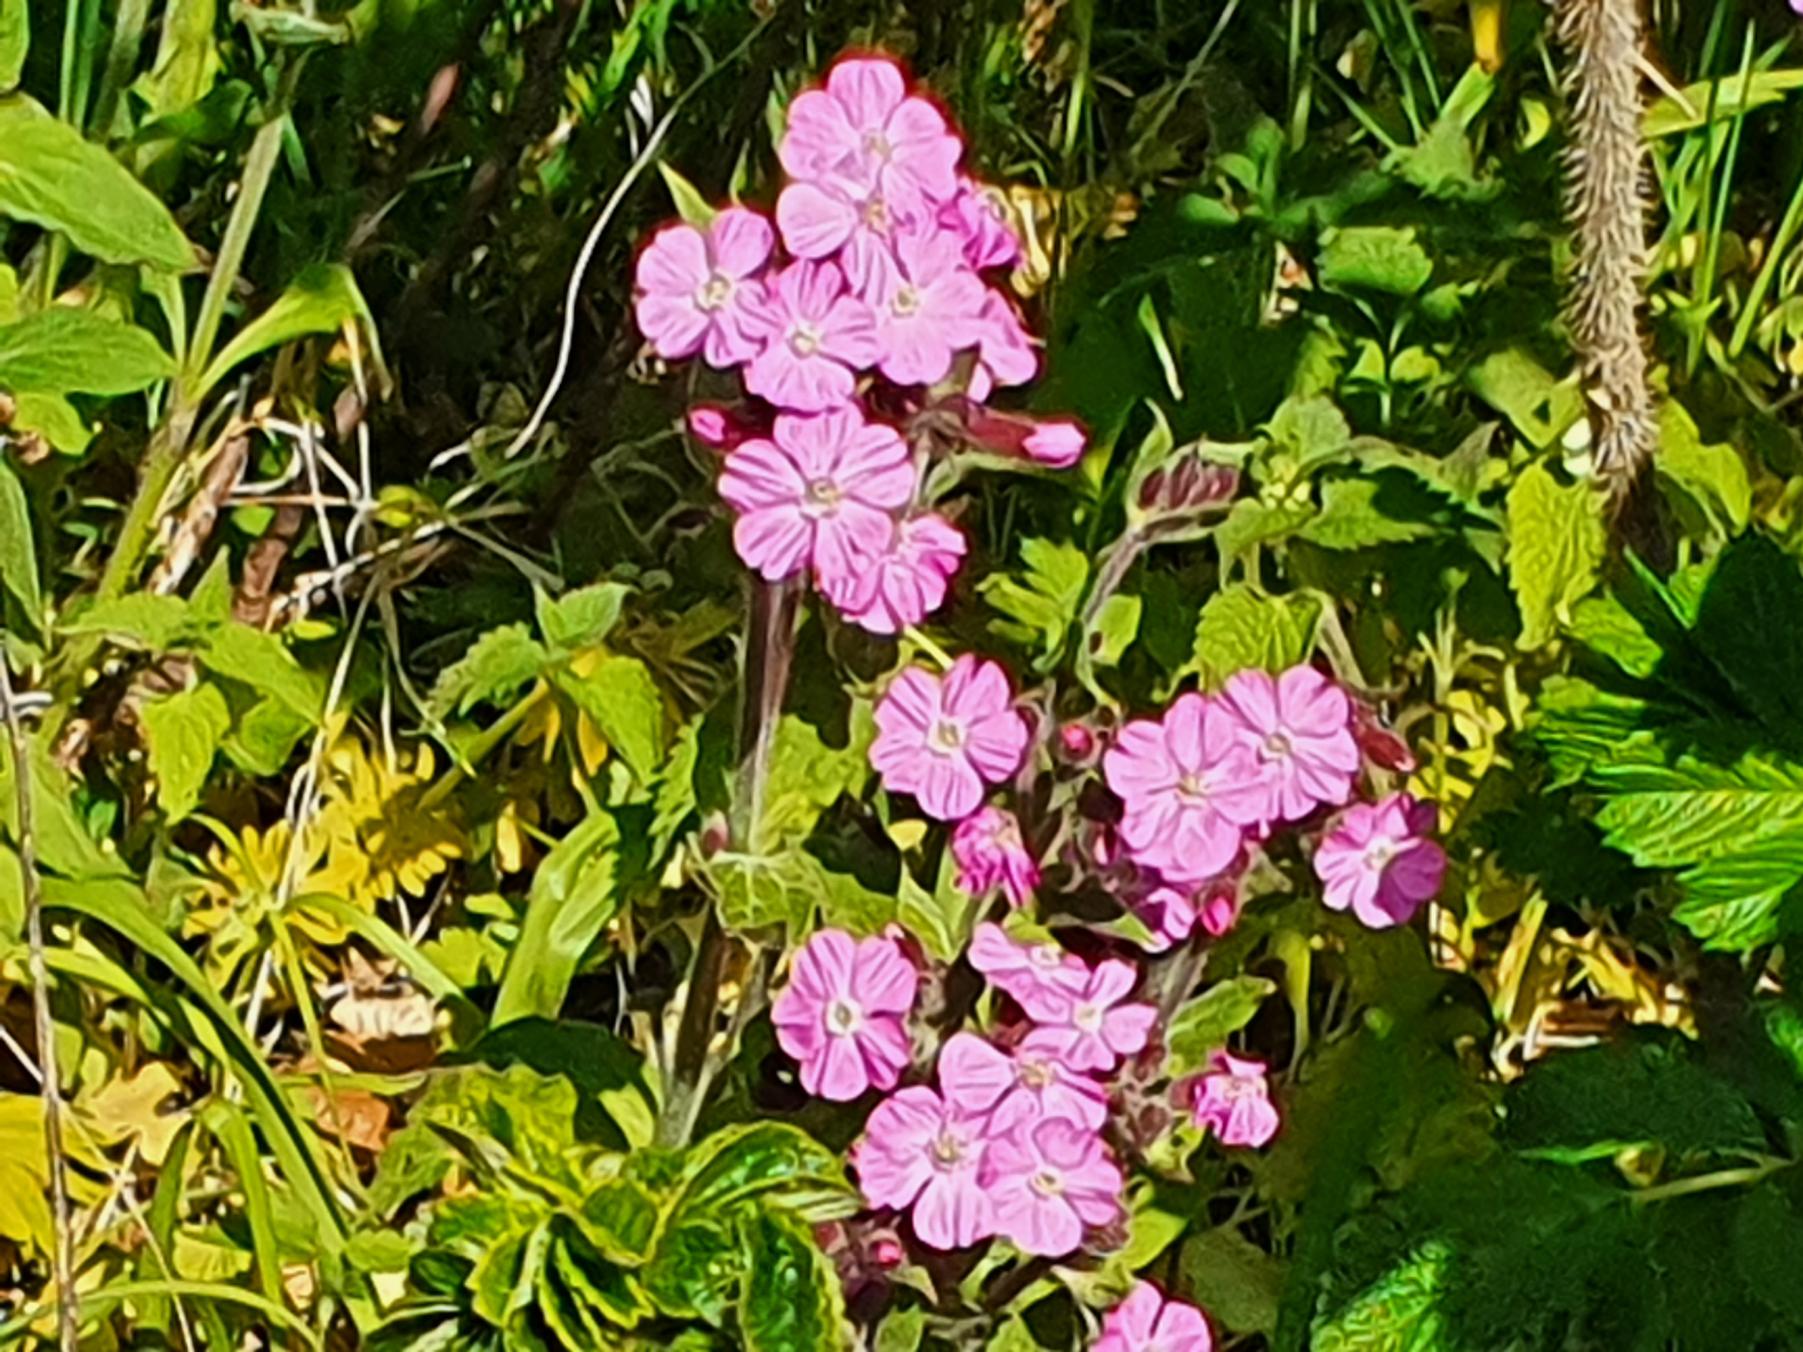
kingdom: Plantae
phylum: Tracheophyta
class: Magnoliopsida
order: Caryophyllales
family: Caryophyllaceae
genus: Silene
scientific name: Silene dioica
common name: Dagpragtstjerne
